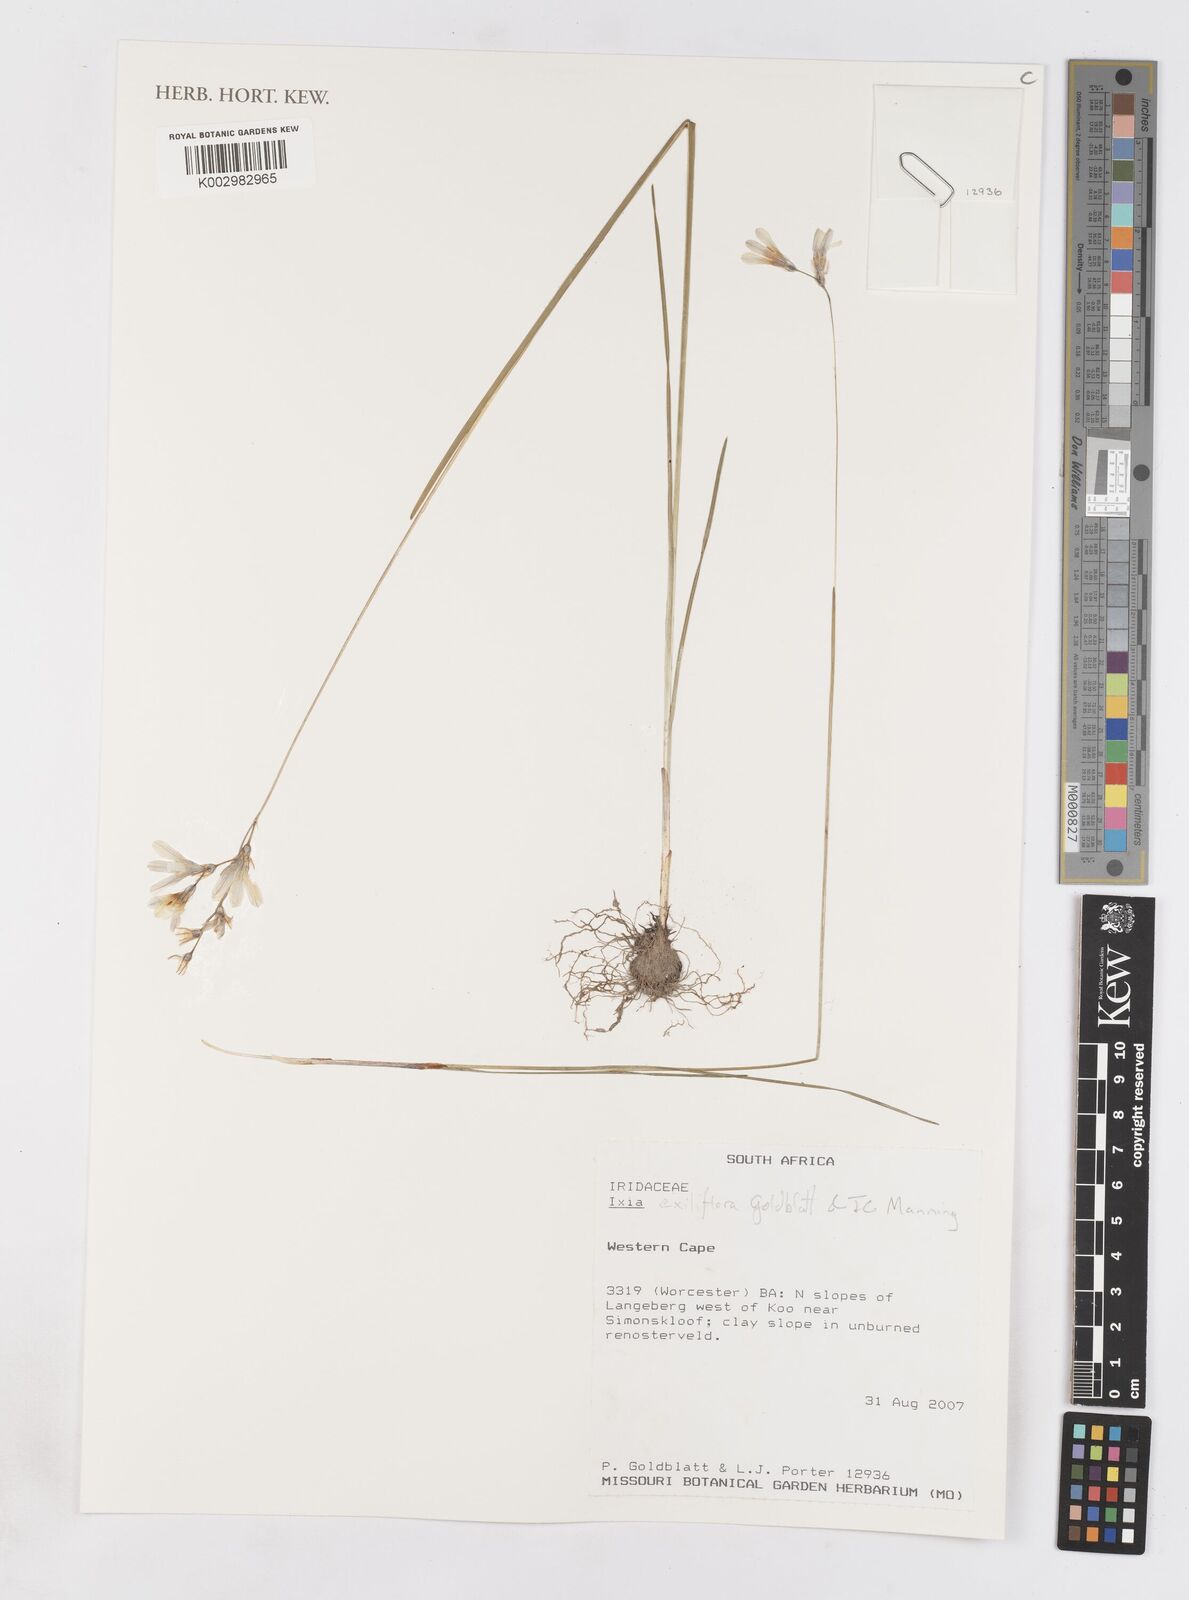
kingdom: Plantae
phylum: Tracheophyta
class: Liliopsida
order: Asparagales
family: Iridaceae
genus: Ixia
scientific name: Ixia exiliflora
